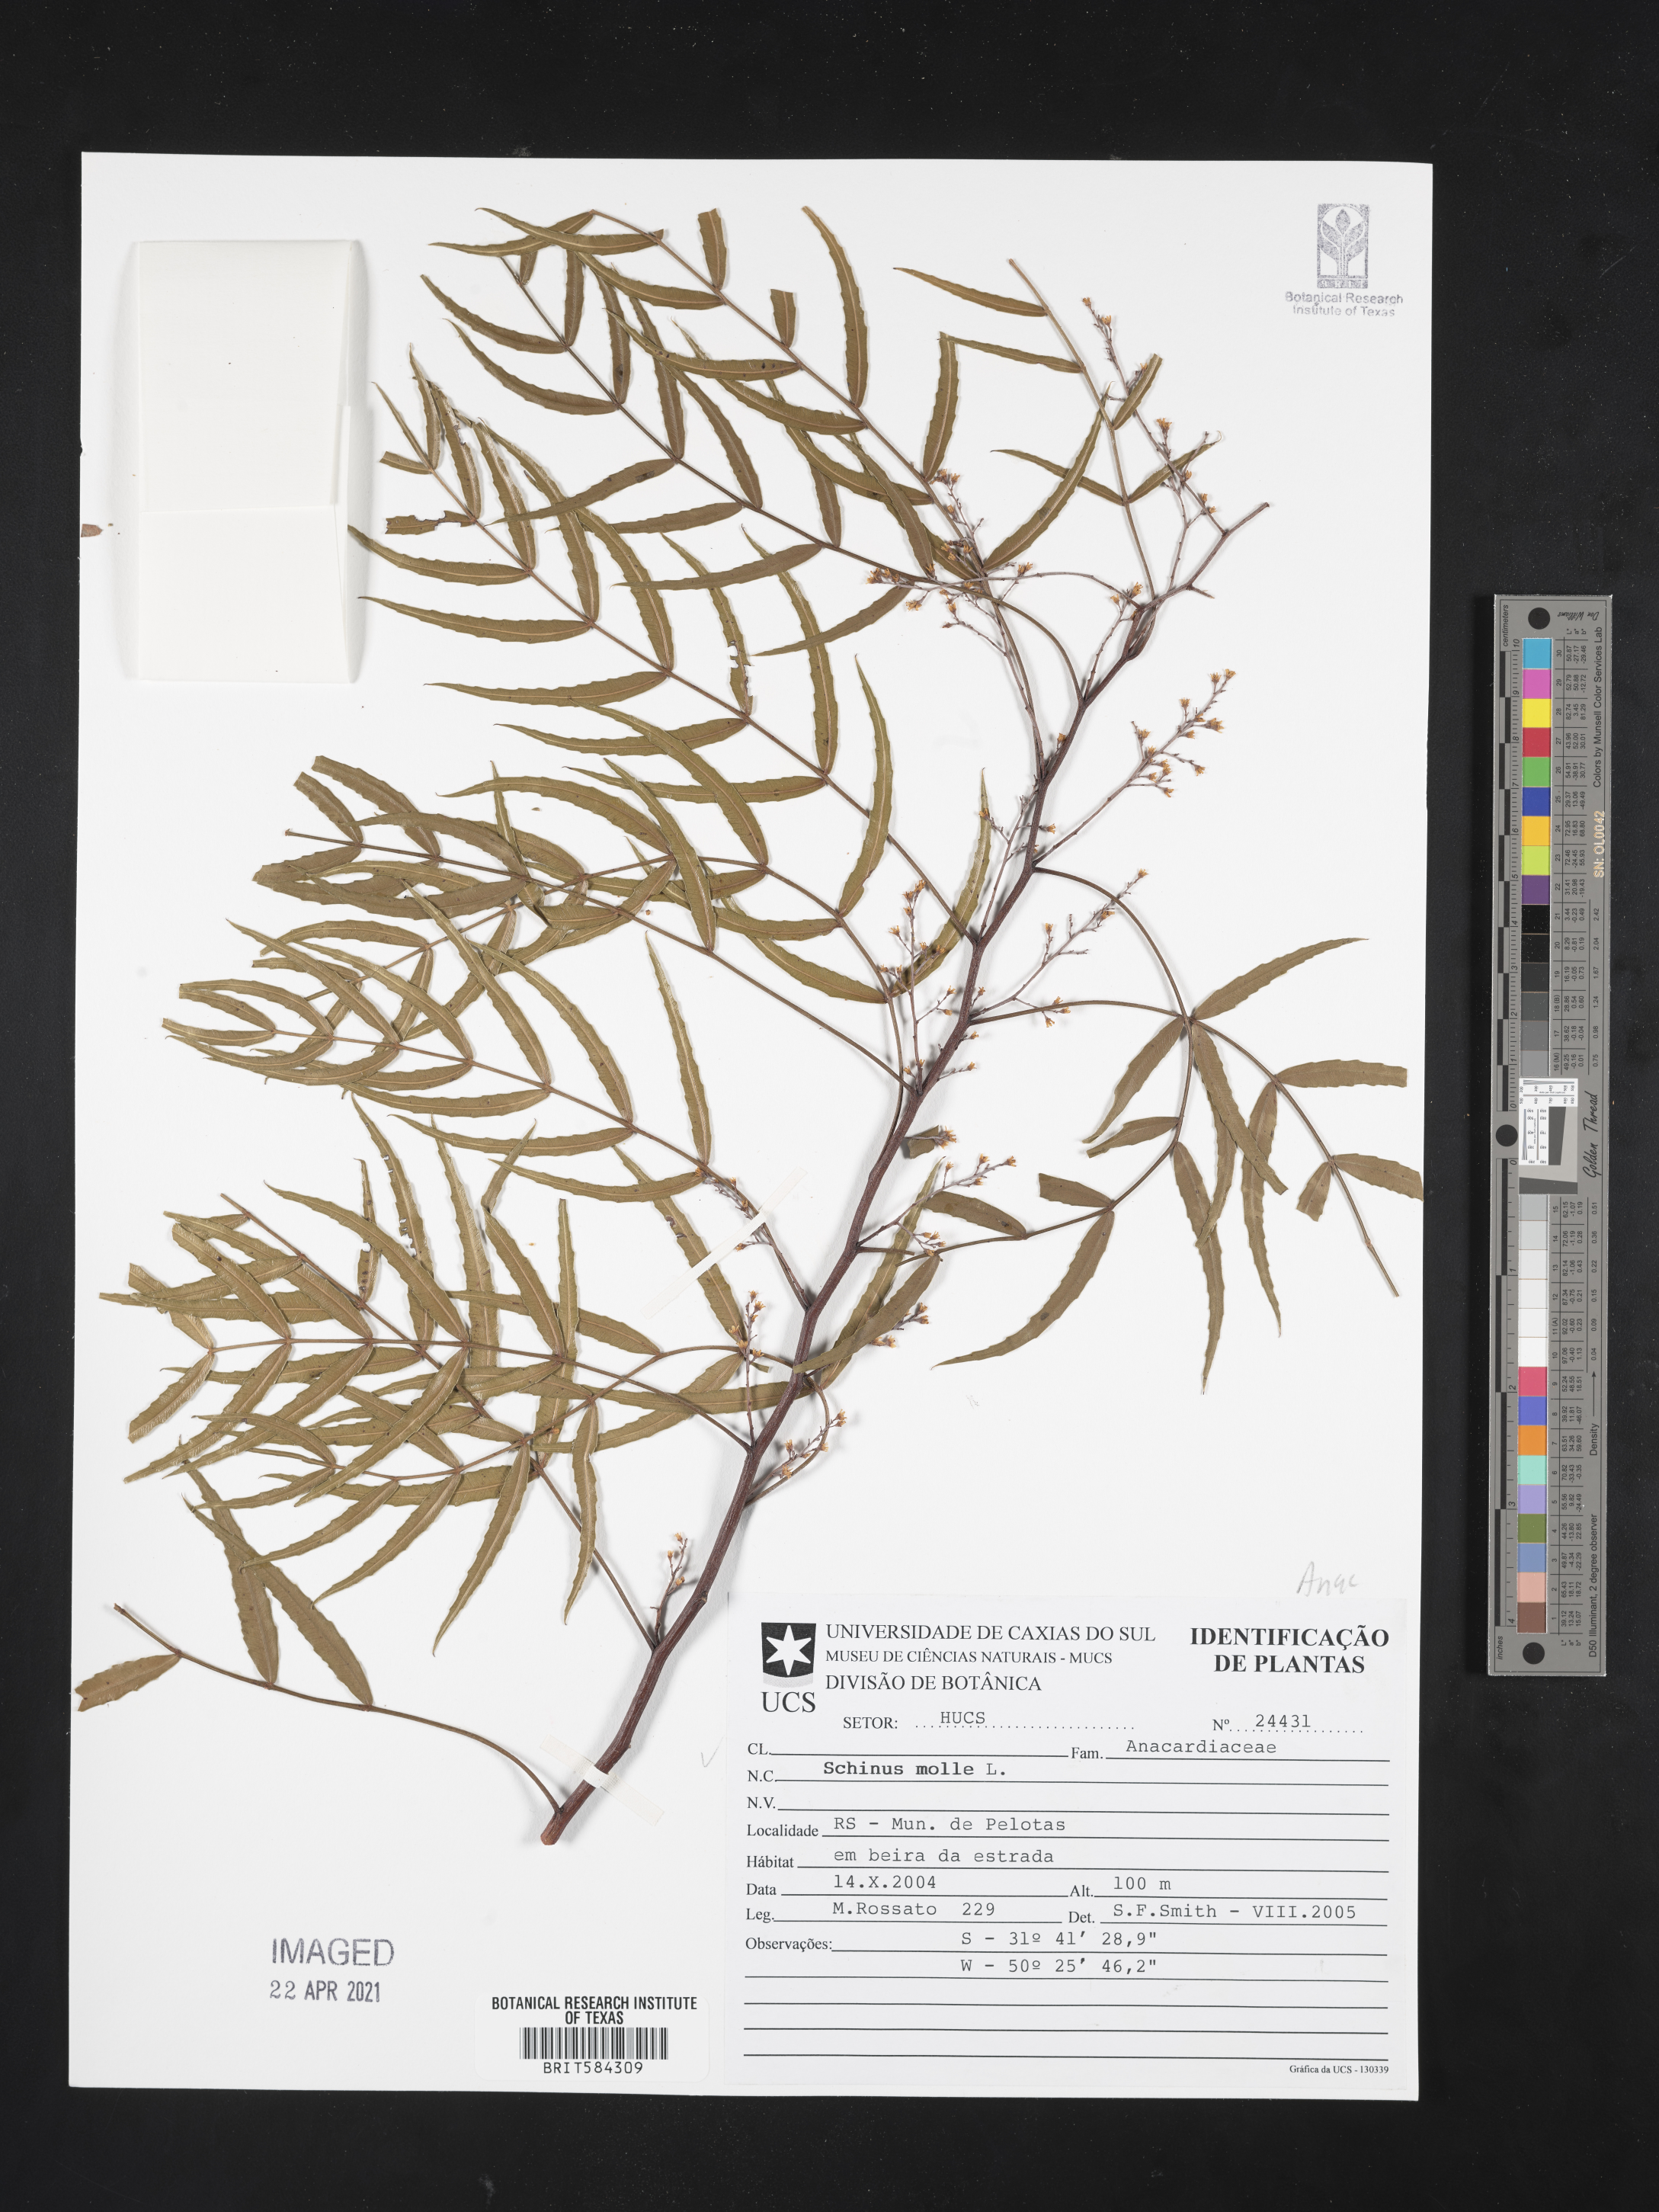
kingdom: Plantae
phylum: Tracheophyta
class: Magnoliopsida
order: Sapindales
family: Anacardiaceae
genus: Schinus
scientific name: Schinus molle
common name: Peruvian peppertree
